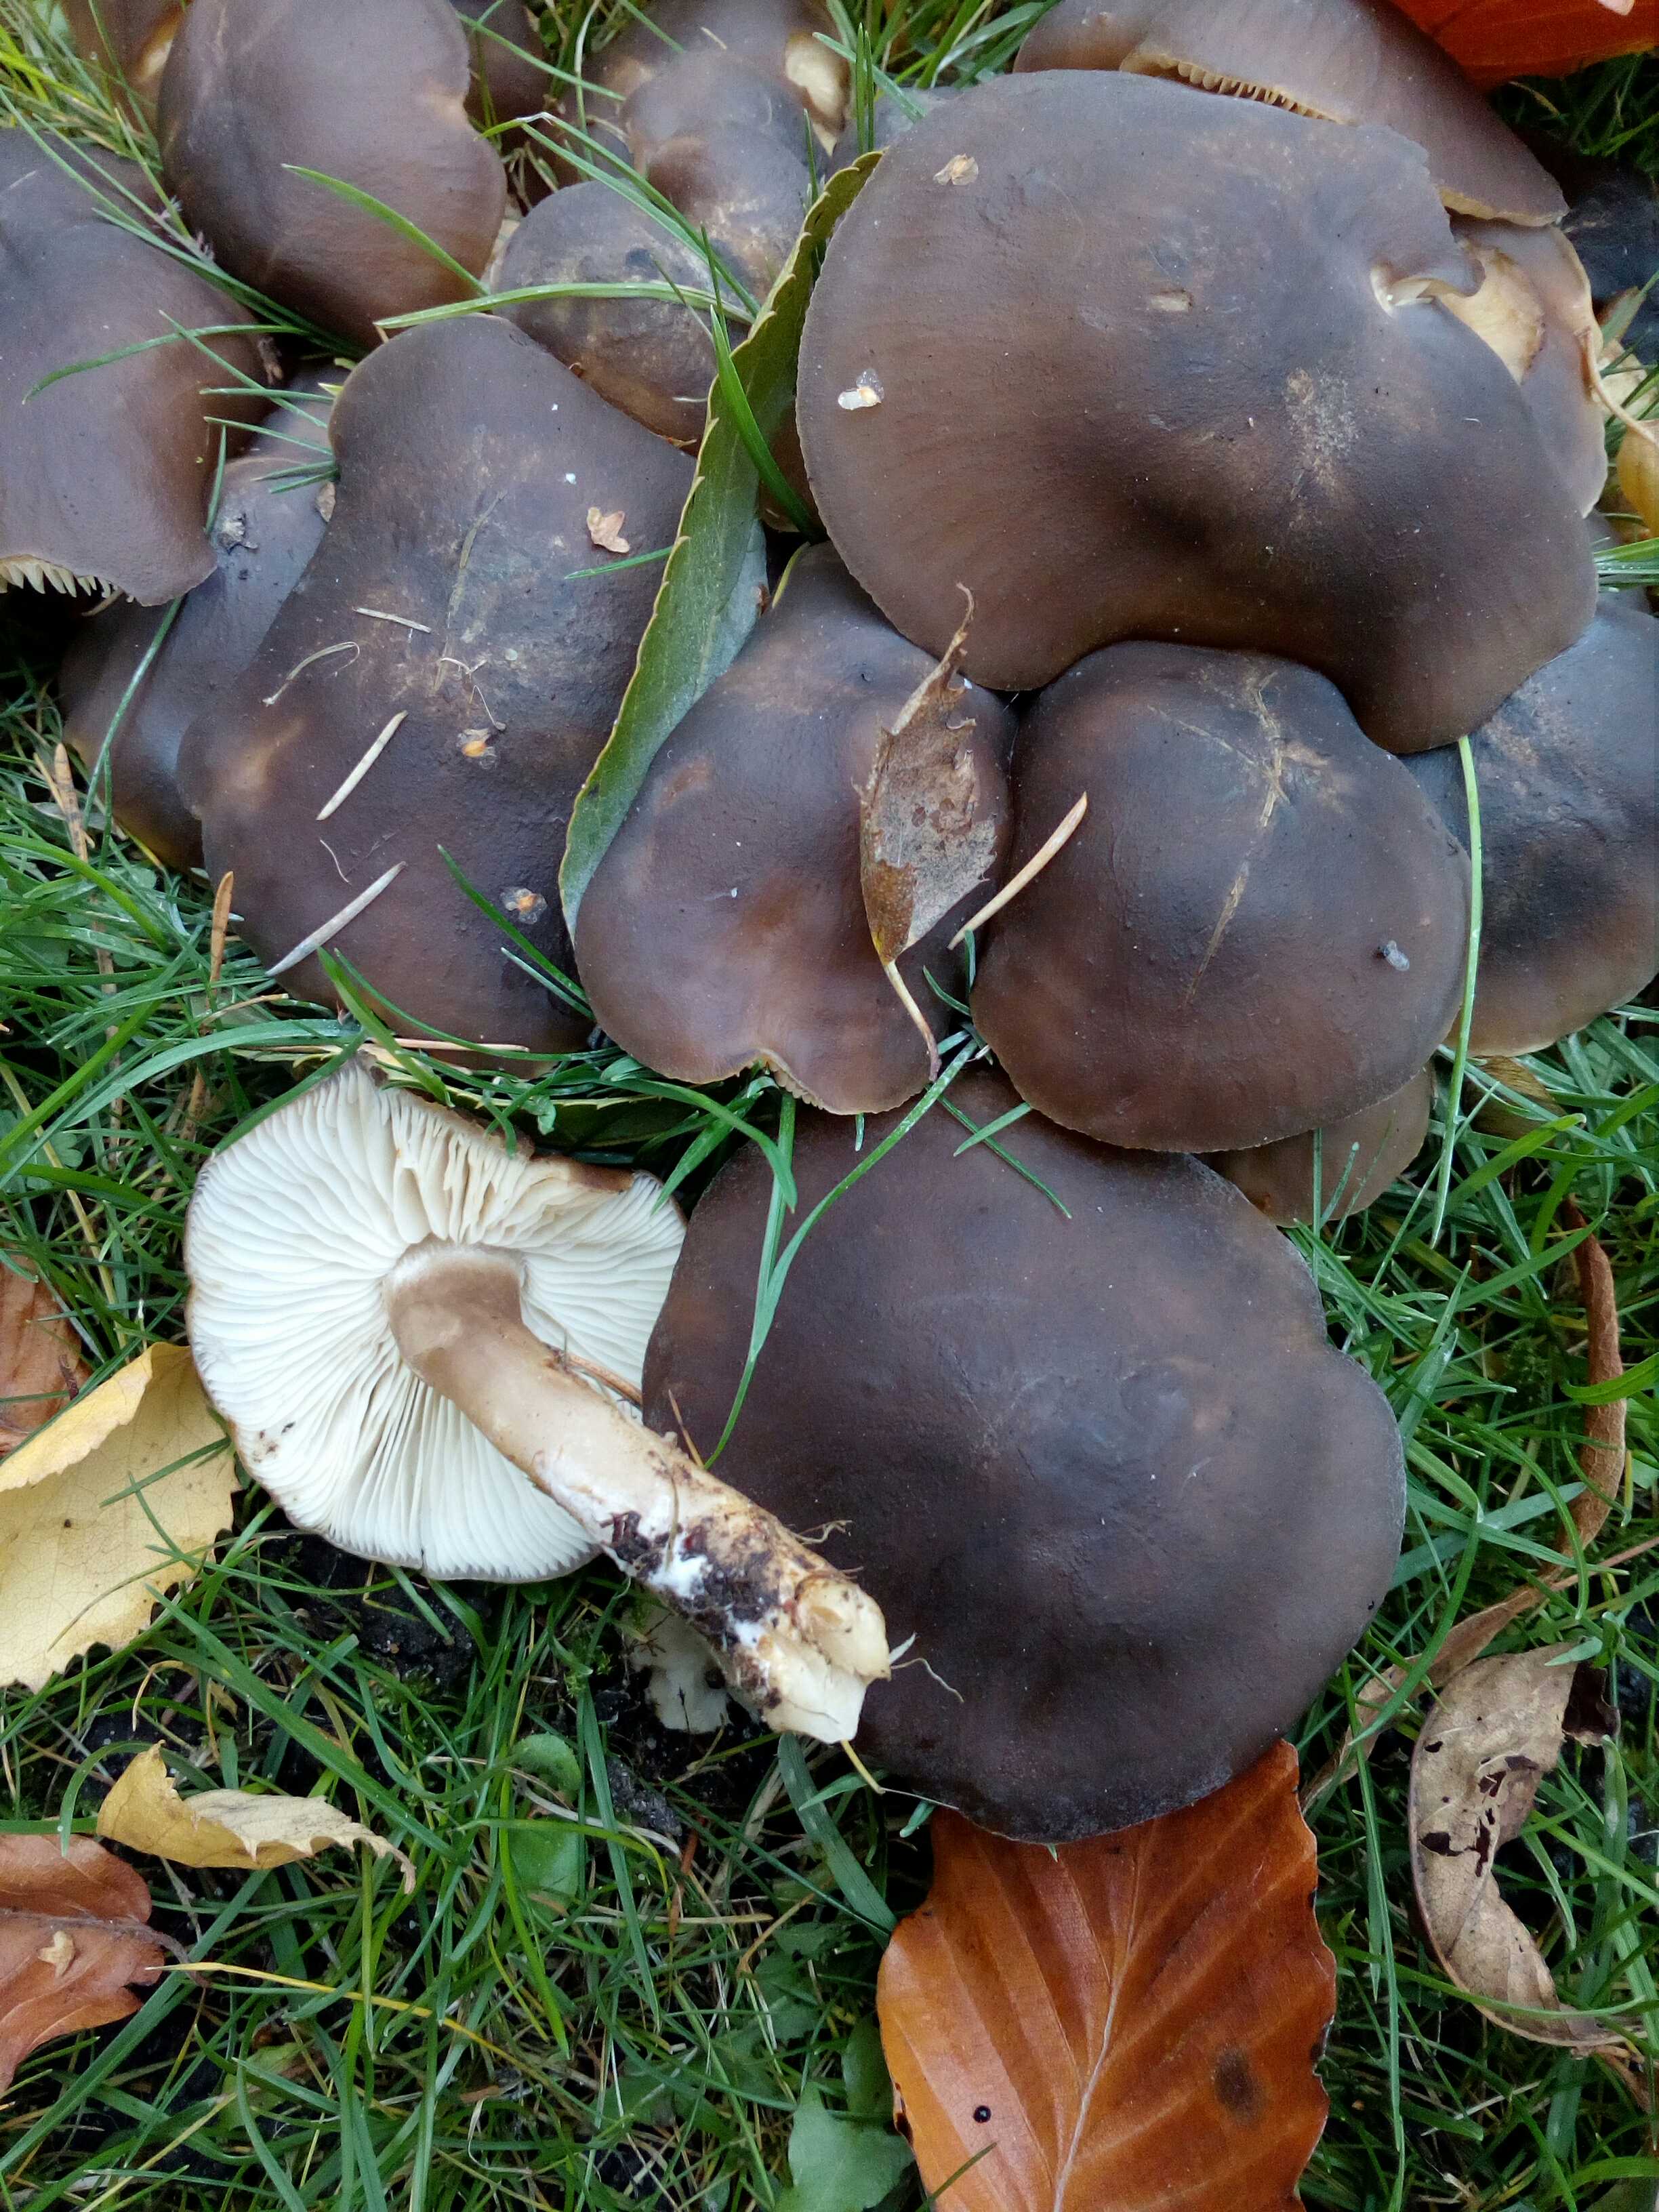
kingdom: Fungi
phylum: Basidiomycota
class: Agaricomycetes
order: Agaricales
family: Lyophyllaceae
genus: Lyophyllum
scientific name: Lyophyllum decastes
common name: Clustered domecap
